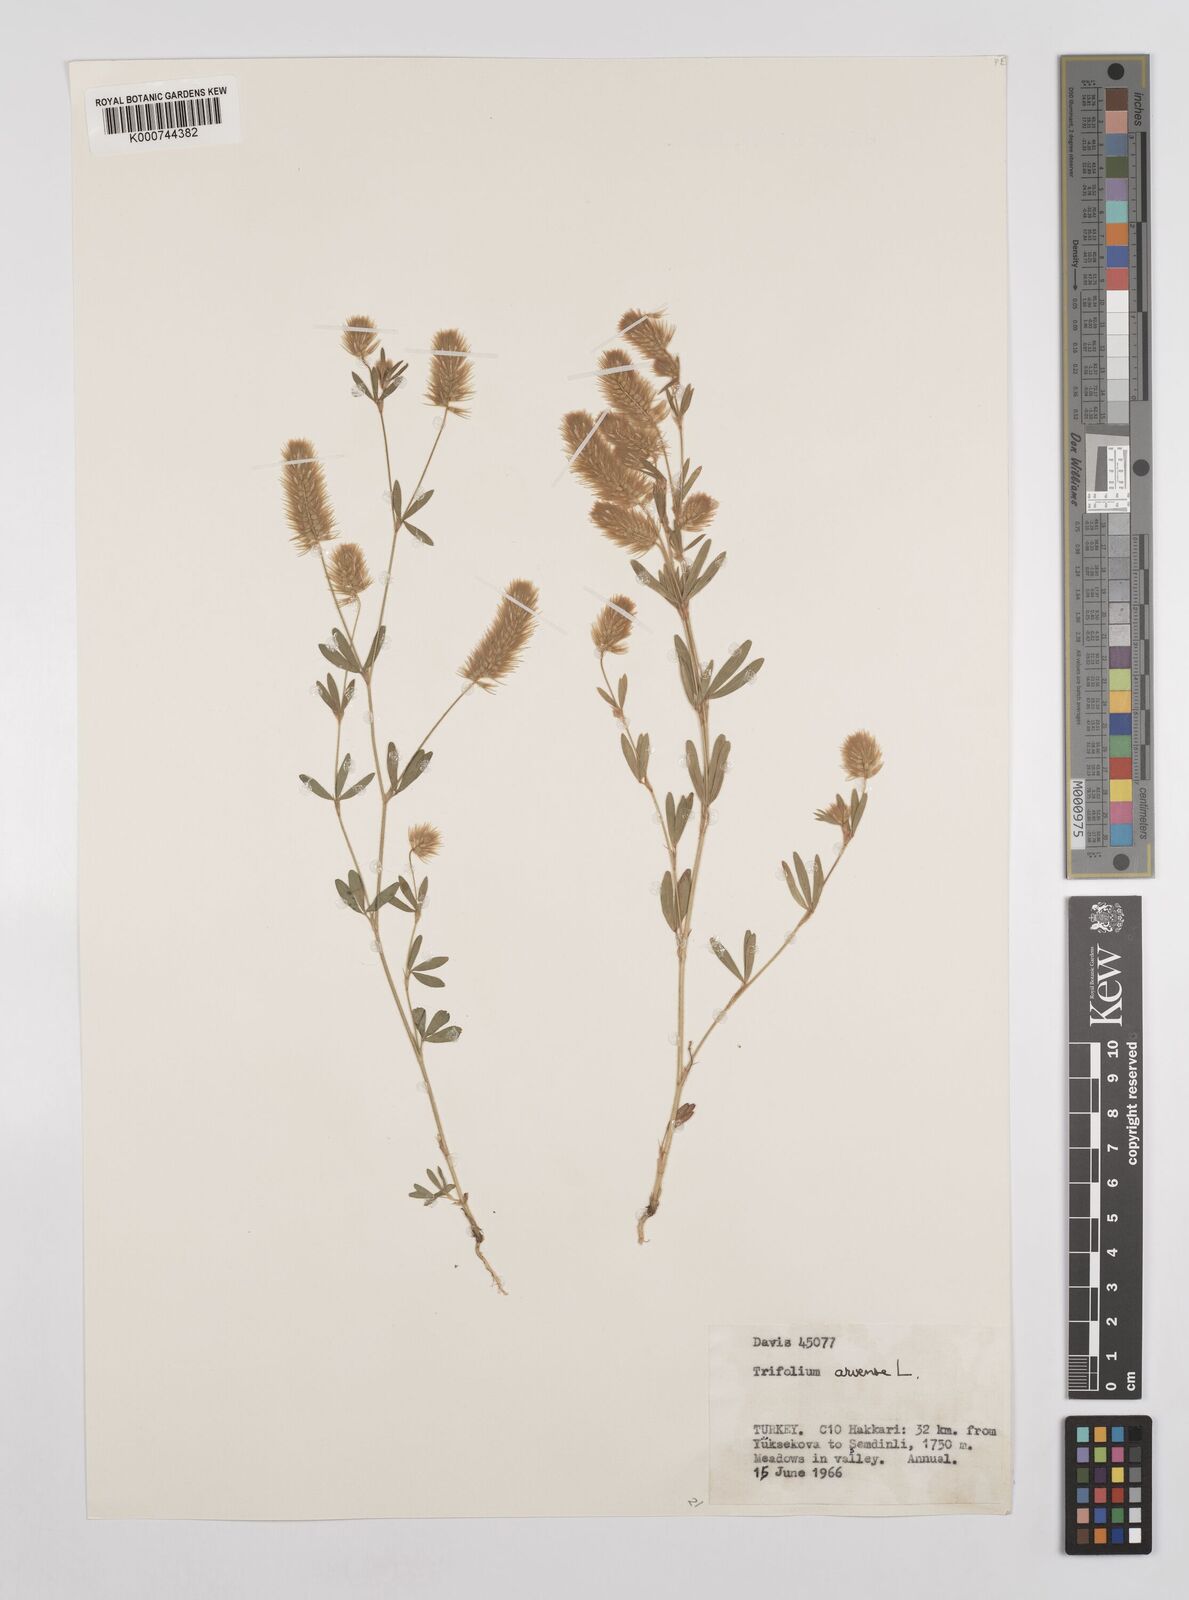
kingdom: Plantae
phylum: Tracheophyta
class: Magnoliopsida
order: Fabales
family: Fabaceae
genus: Trifolium
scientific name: Trifolium arvense
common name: Hare's-foot clover
